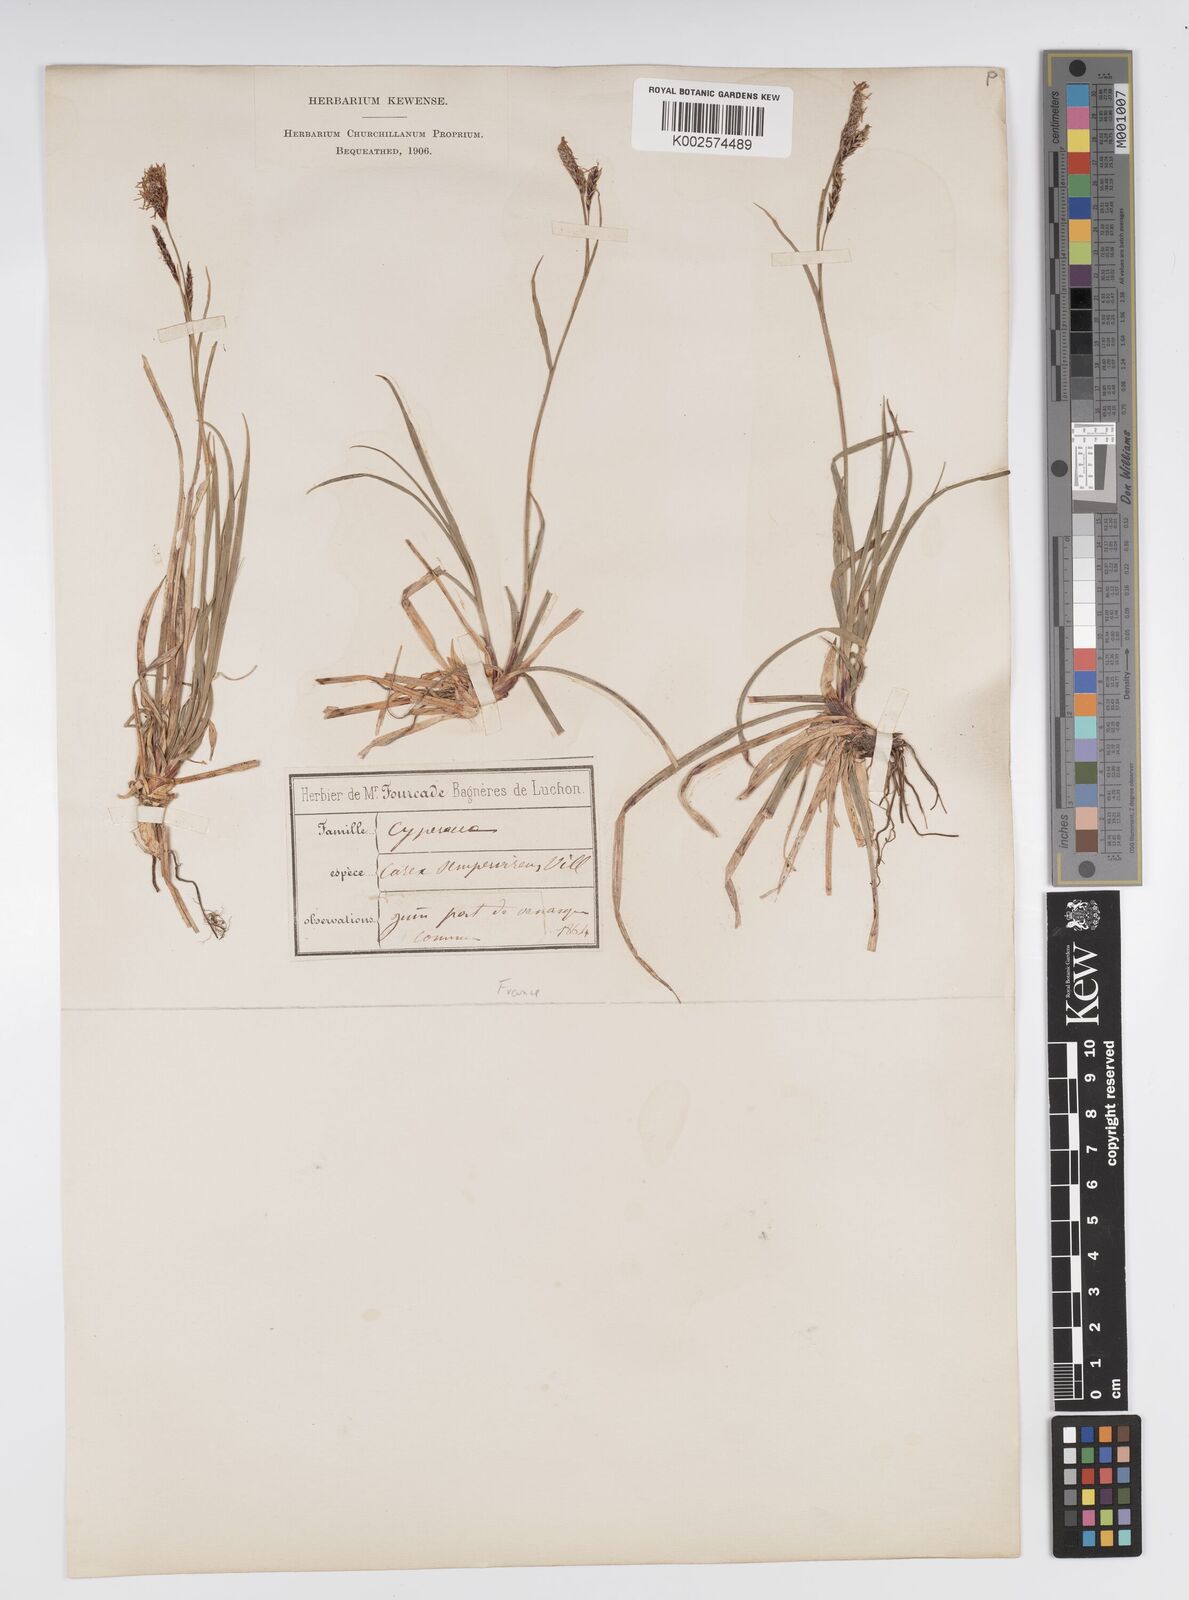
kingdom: Plantae
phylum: Tracheophyta
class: Liliopsida
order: Poales
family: Cyperaceae
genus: Carex
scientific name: Carex sempervirens
